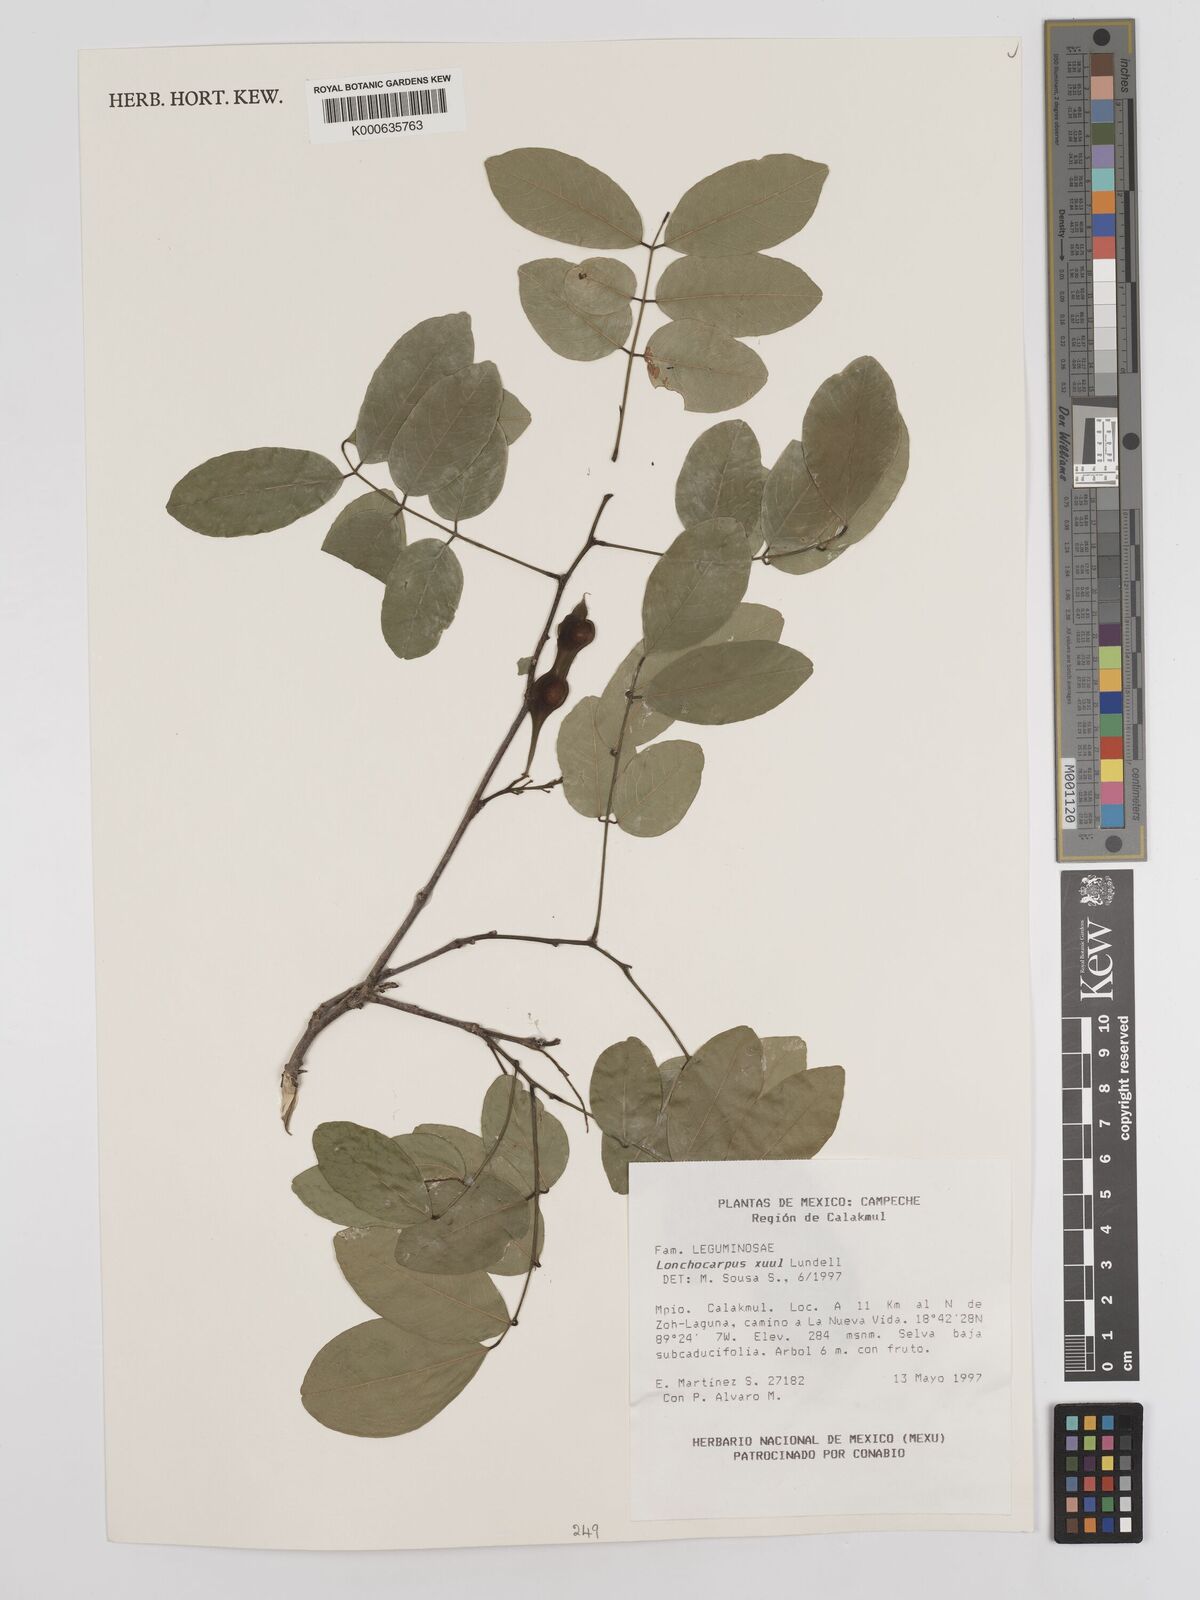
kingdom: Plantae
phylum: Tracheophyta
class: Magnoliopsida
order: Fabales
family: Fabaceae
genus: Lonchocarpus
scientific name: Lonchocarpus guatemalensis
